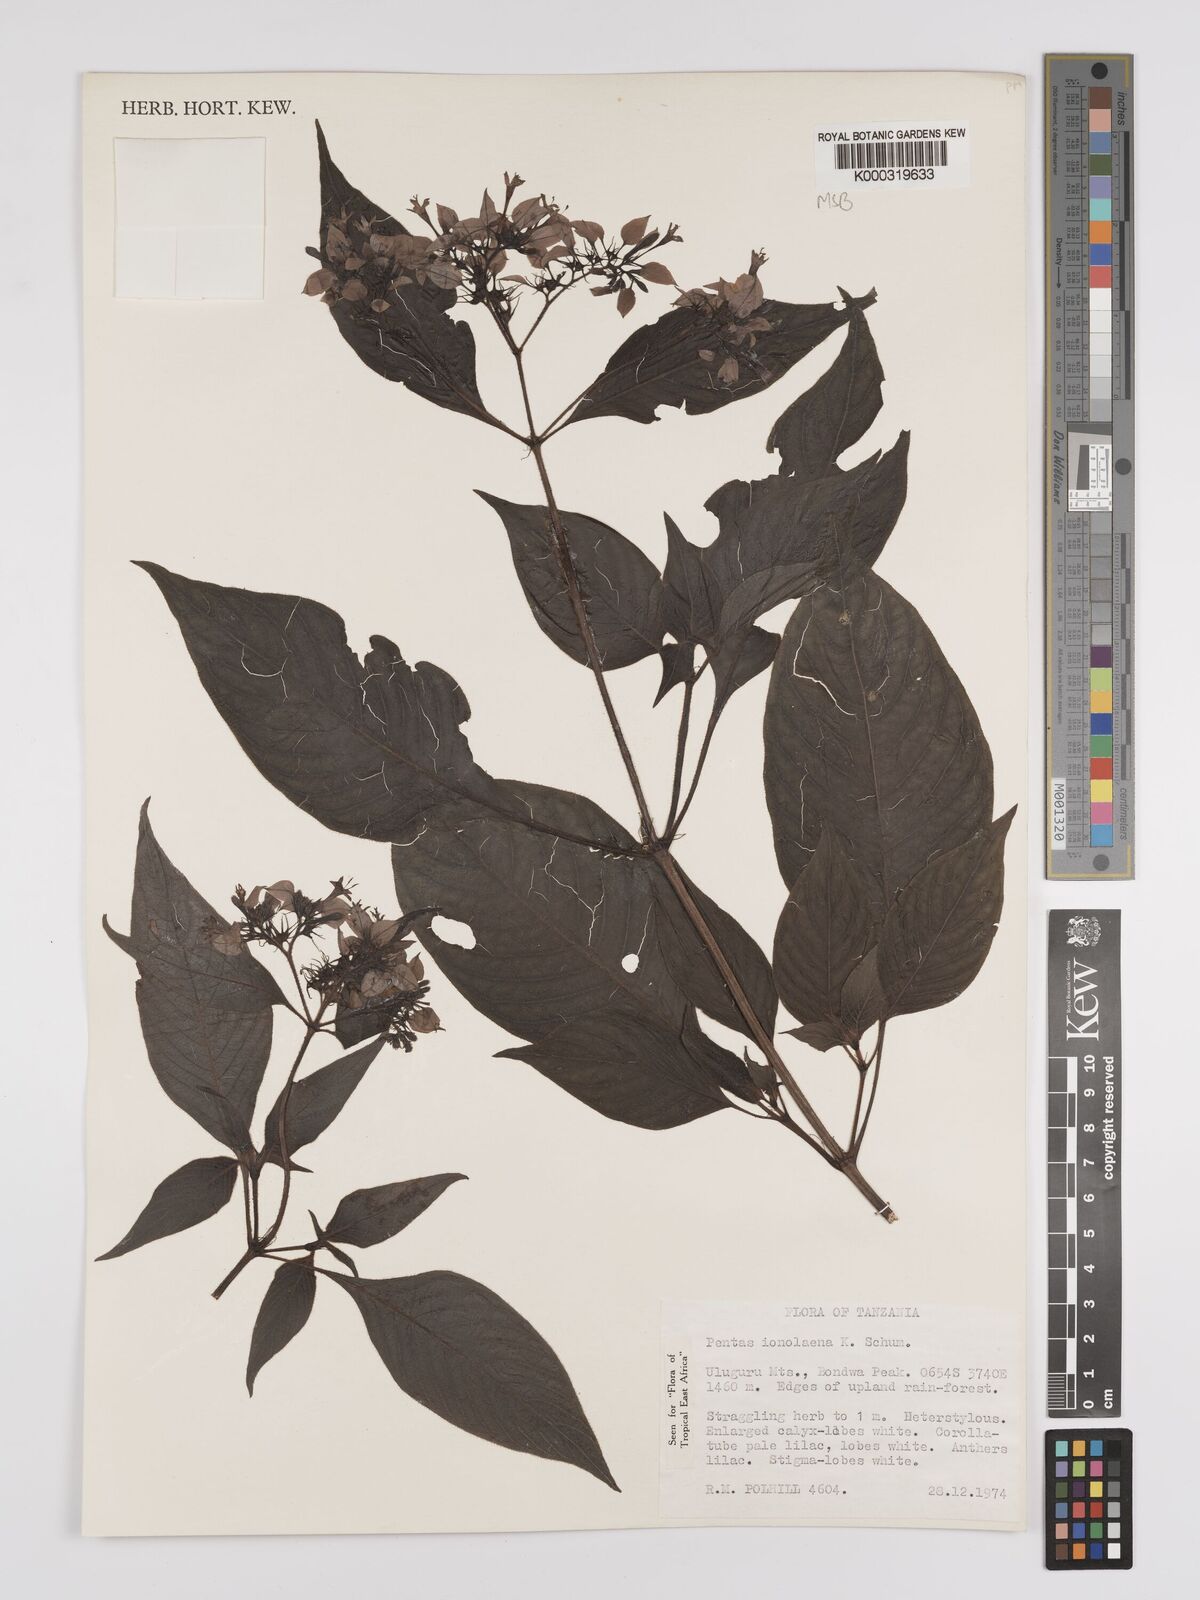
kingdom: Plantae
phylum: Tracheophyta
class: Magnoliopsida
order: Gentianales
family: Rubiaceae
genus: Phyllopentas
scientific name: Phyllopentas ionolaena
